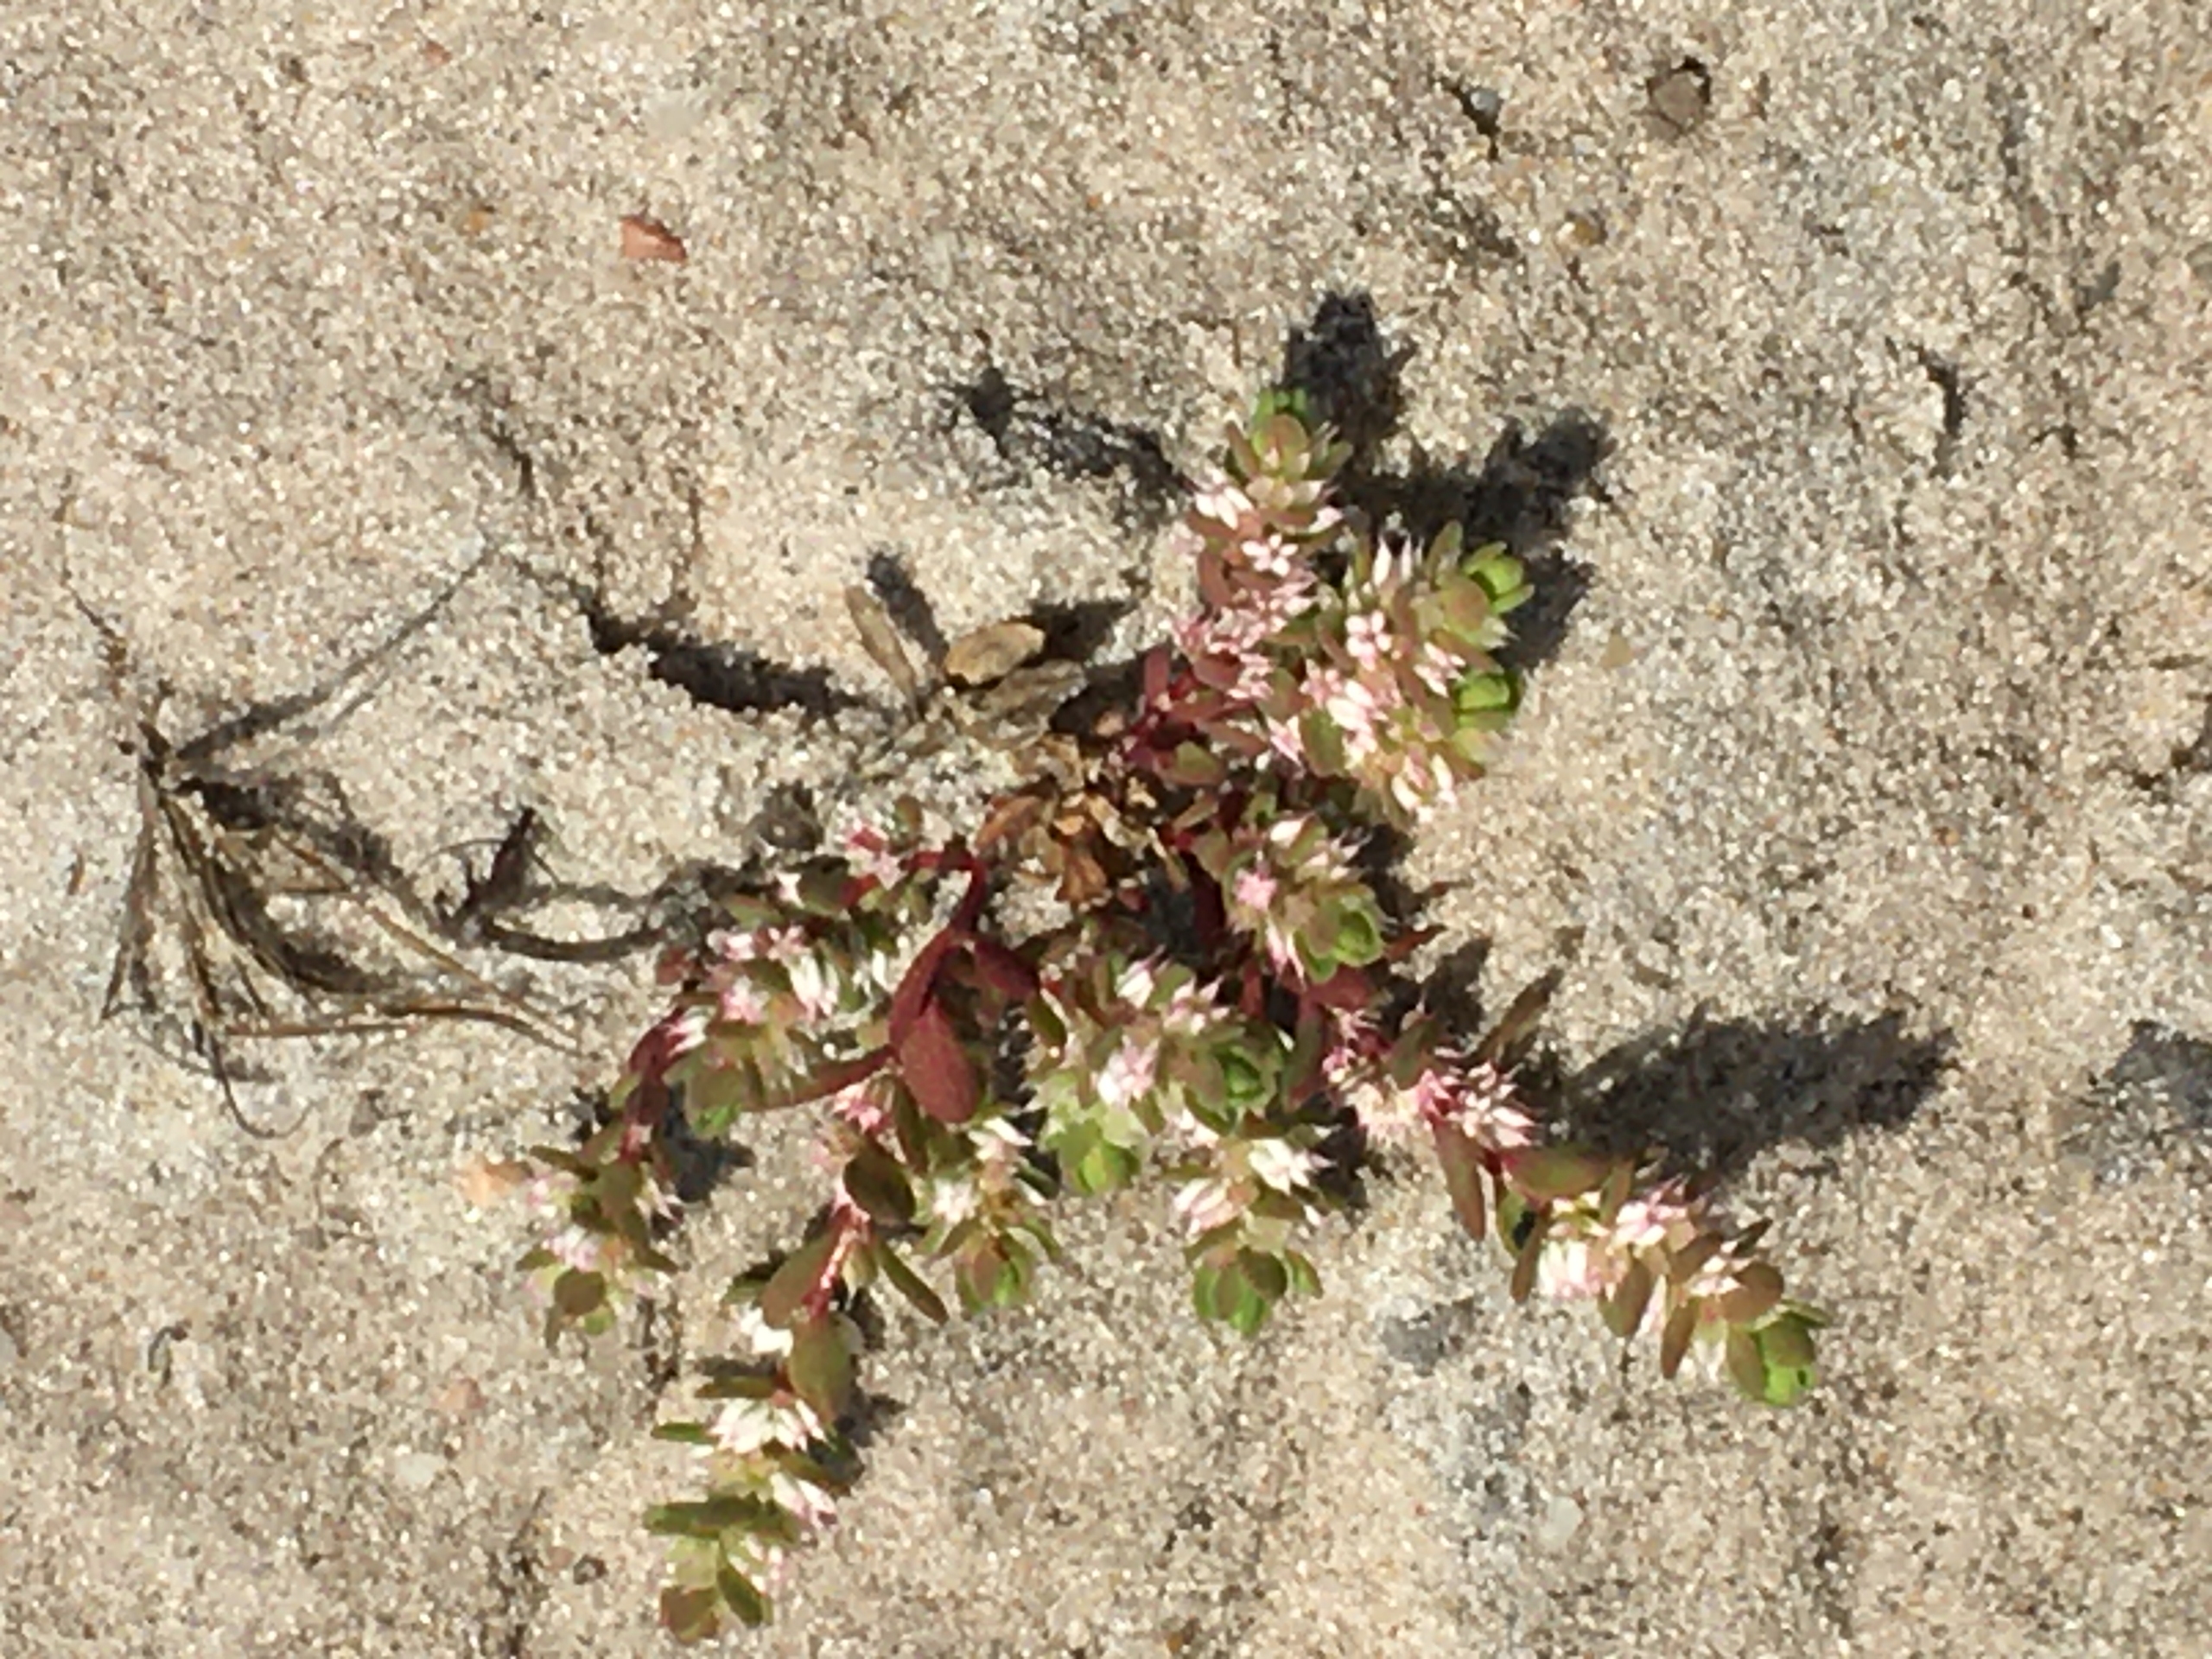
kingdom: Plantae
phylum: Tracheophyta
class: Magnoliopsida
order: Caryophyllales
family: Caryophyllaceae
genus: Illecebrum
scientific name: Illecebrum verticillatum
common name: Bruskbæger
